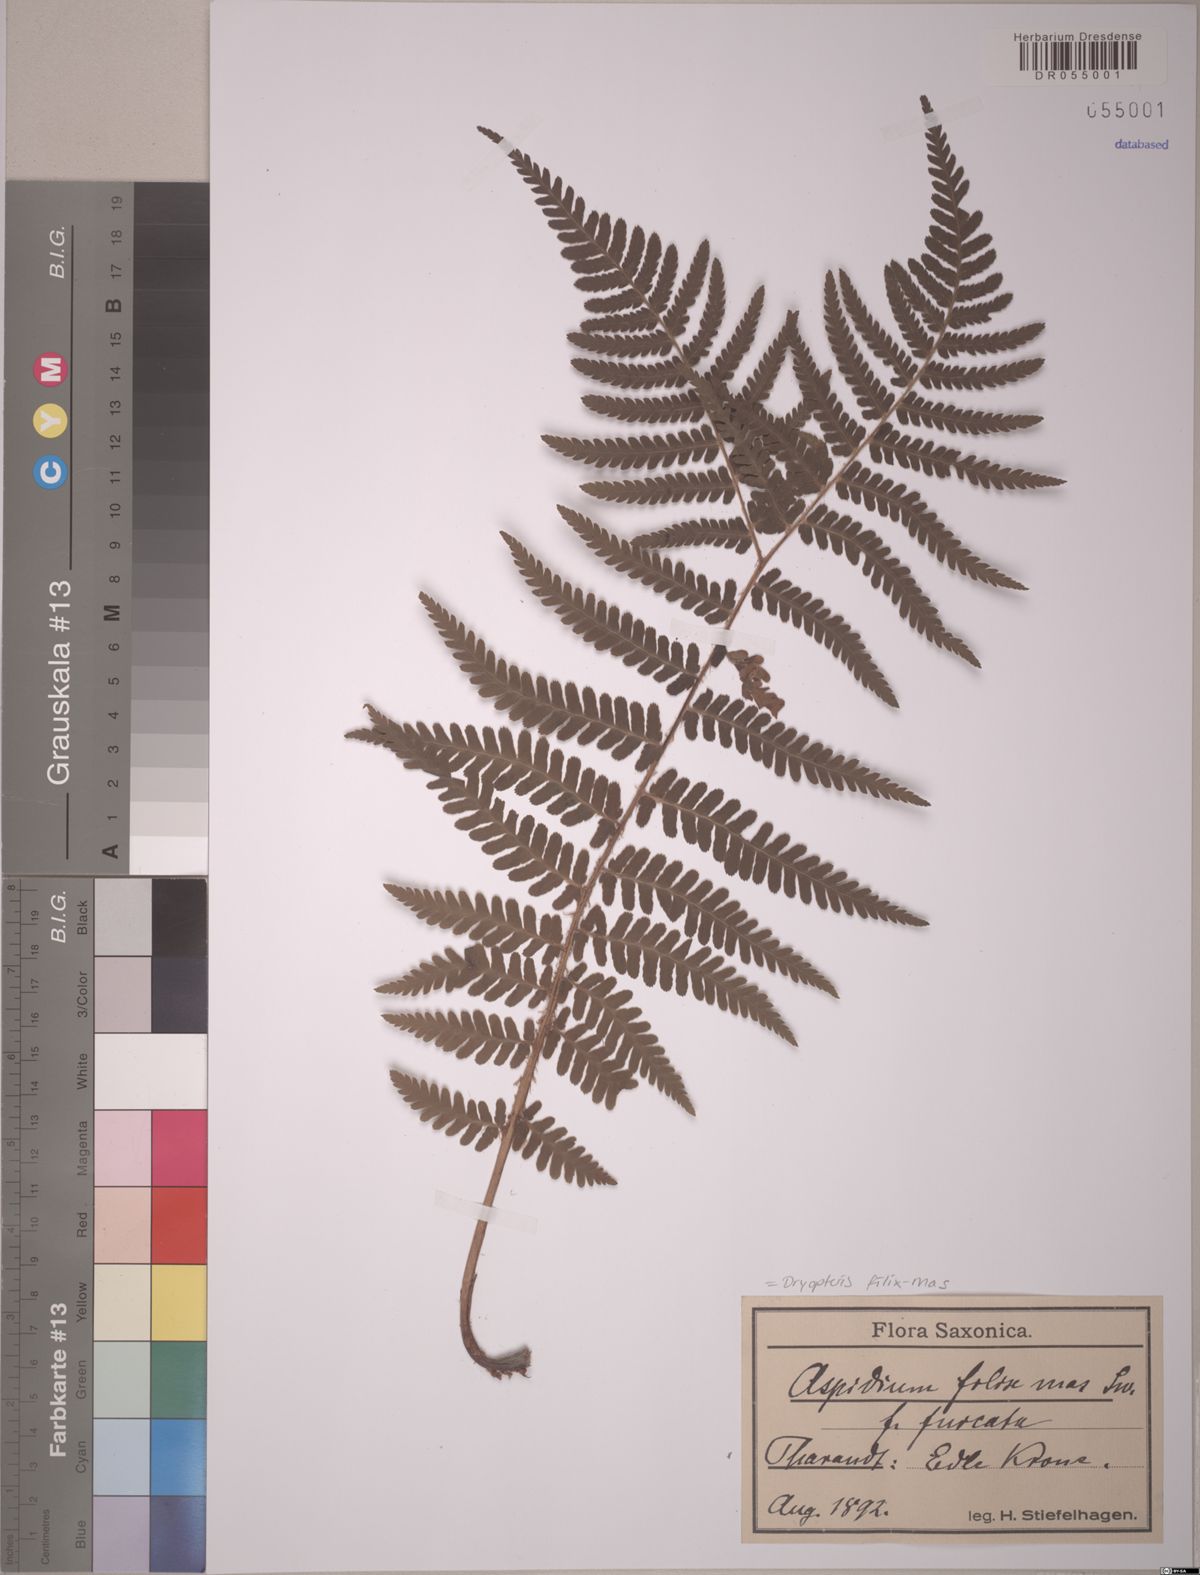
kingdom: Plantae
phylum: Tracheophyta
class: Polypodiopsida
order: Polypodiales
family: Dryopteridaceae
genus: Dryopteris
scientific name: Dryopteris filix-mas
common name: Male fern
